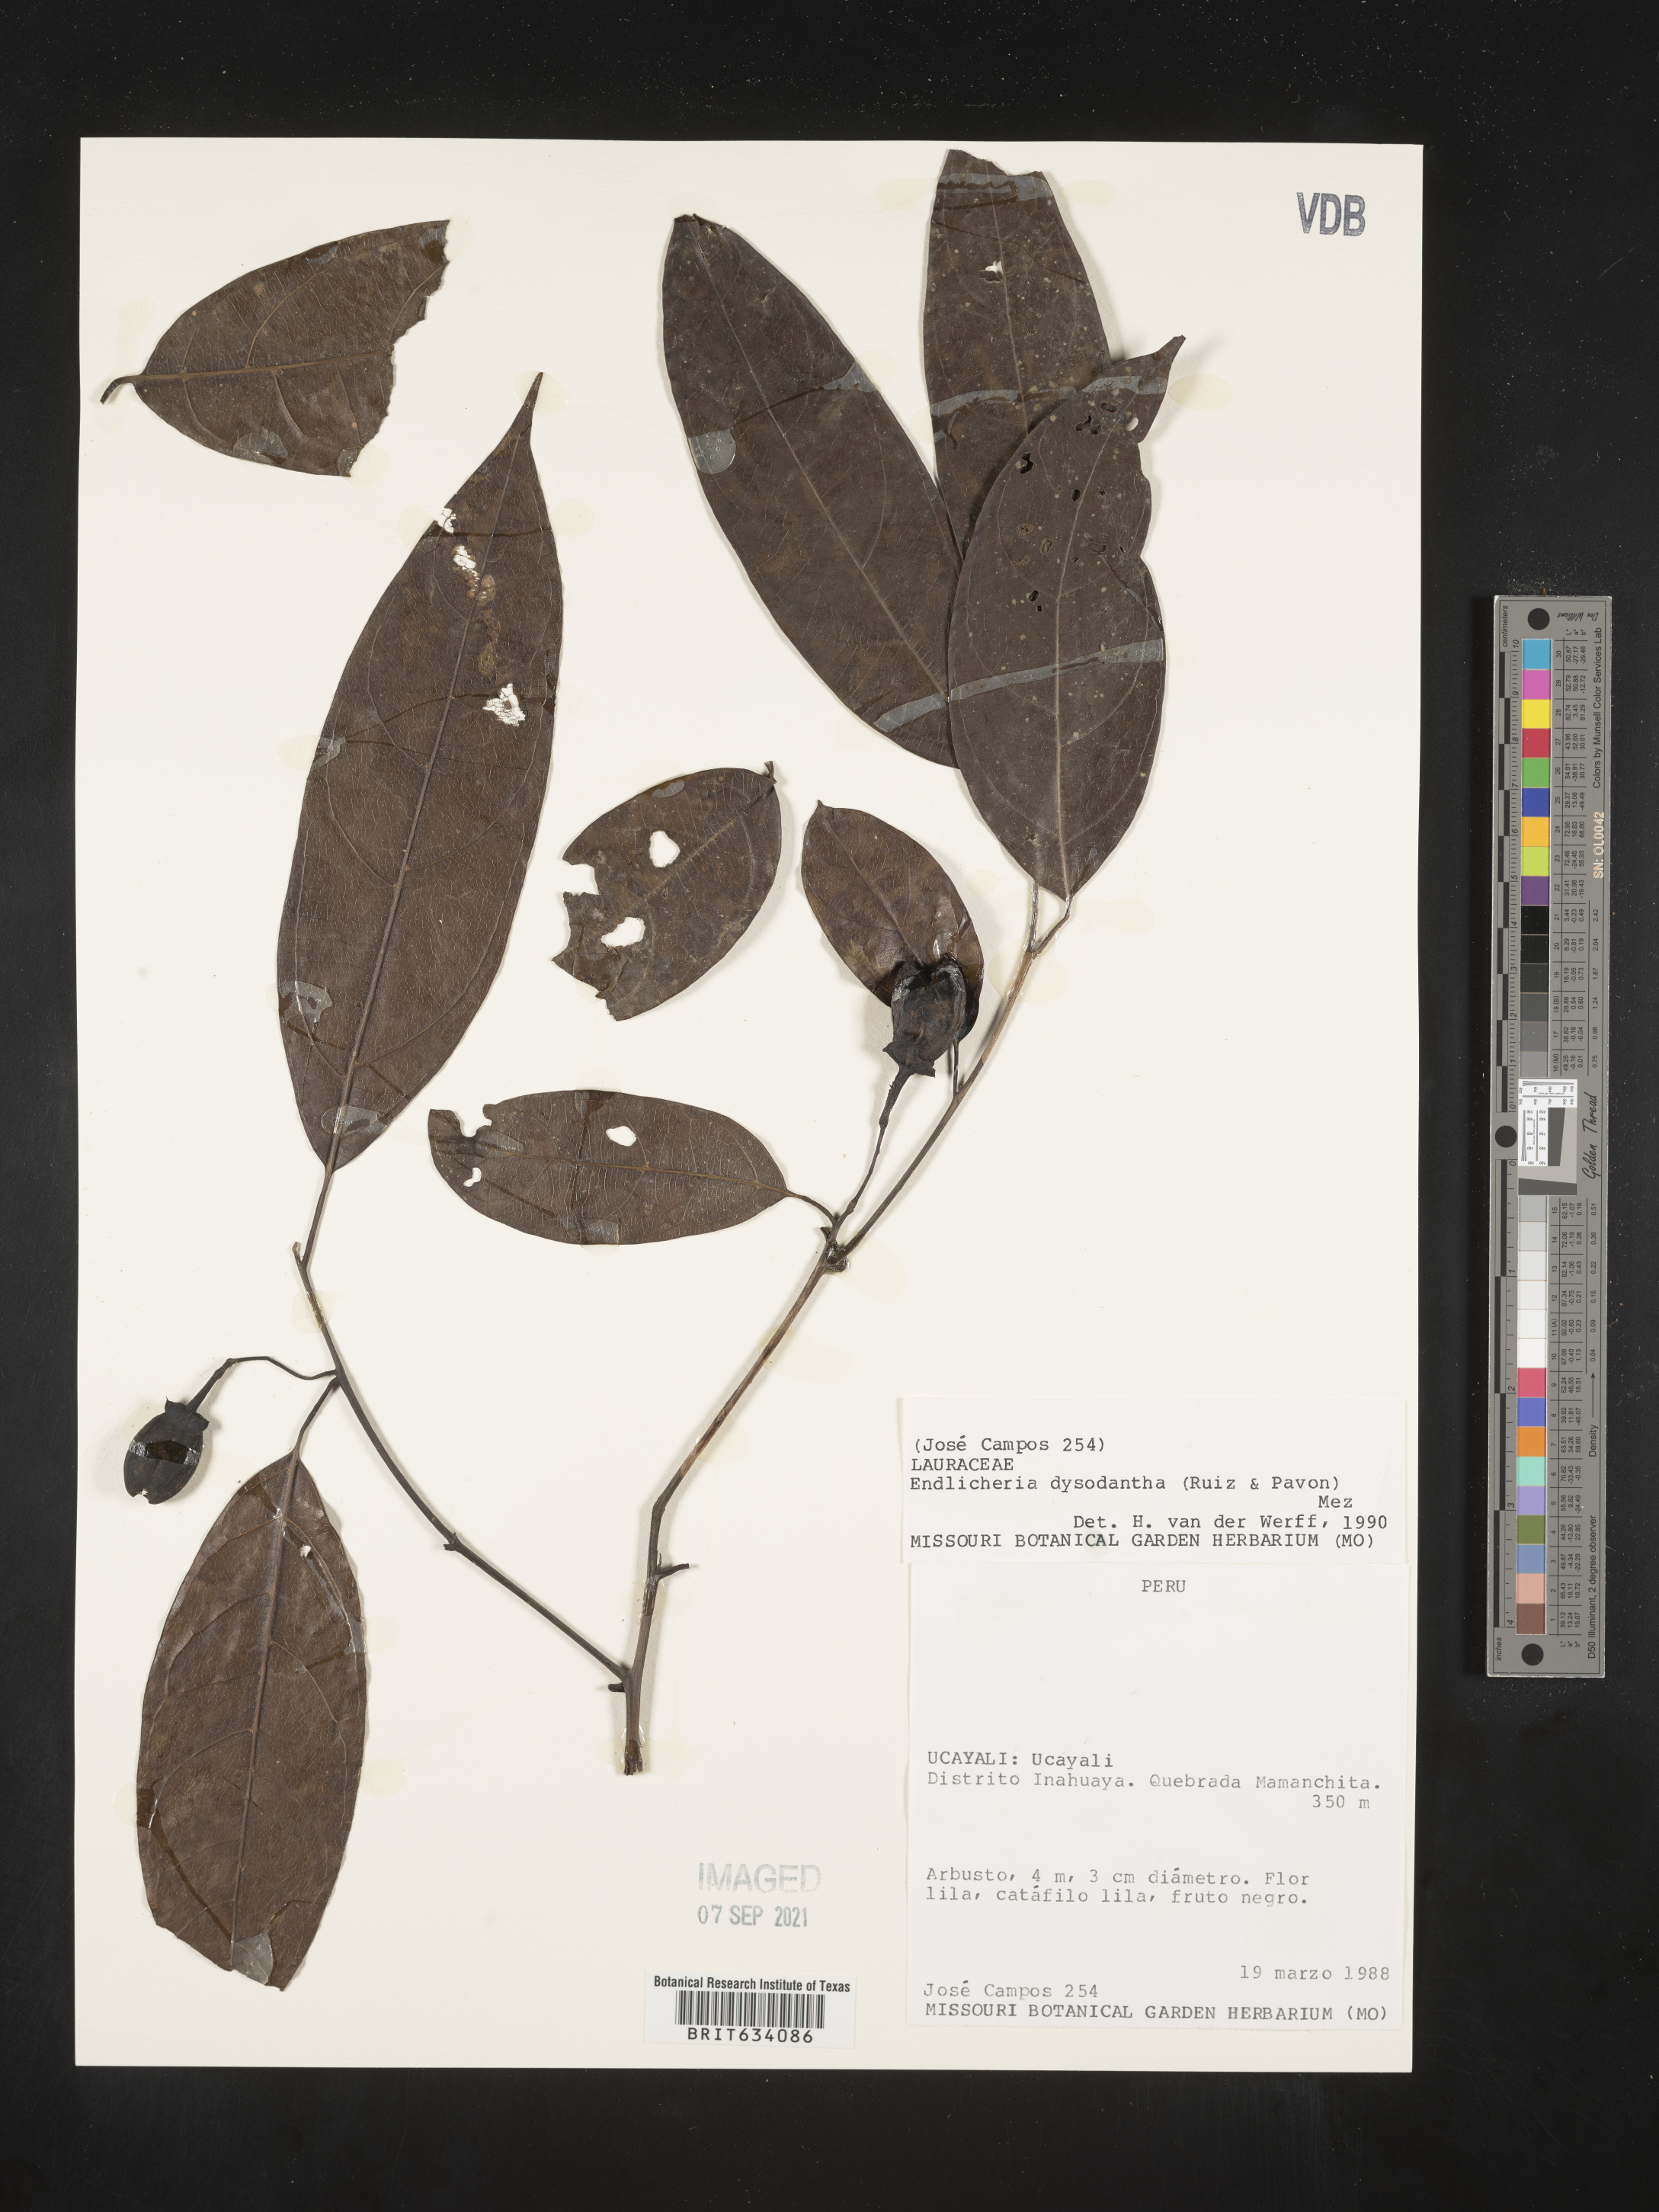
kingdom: Plantae
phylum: Tracheophyta
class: Magnoliopsida
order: Laurales
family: Lauraceae
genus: Endlicheria
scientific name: Endlicheria
